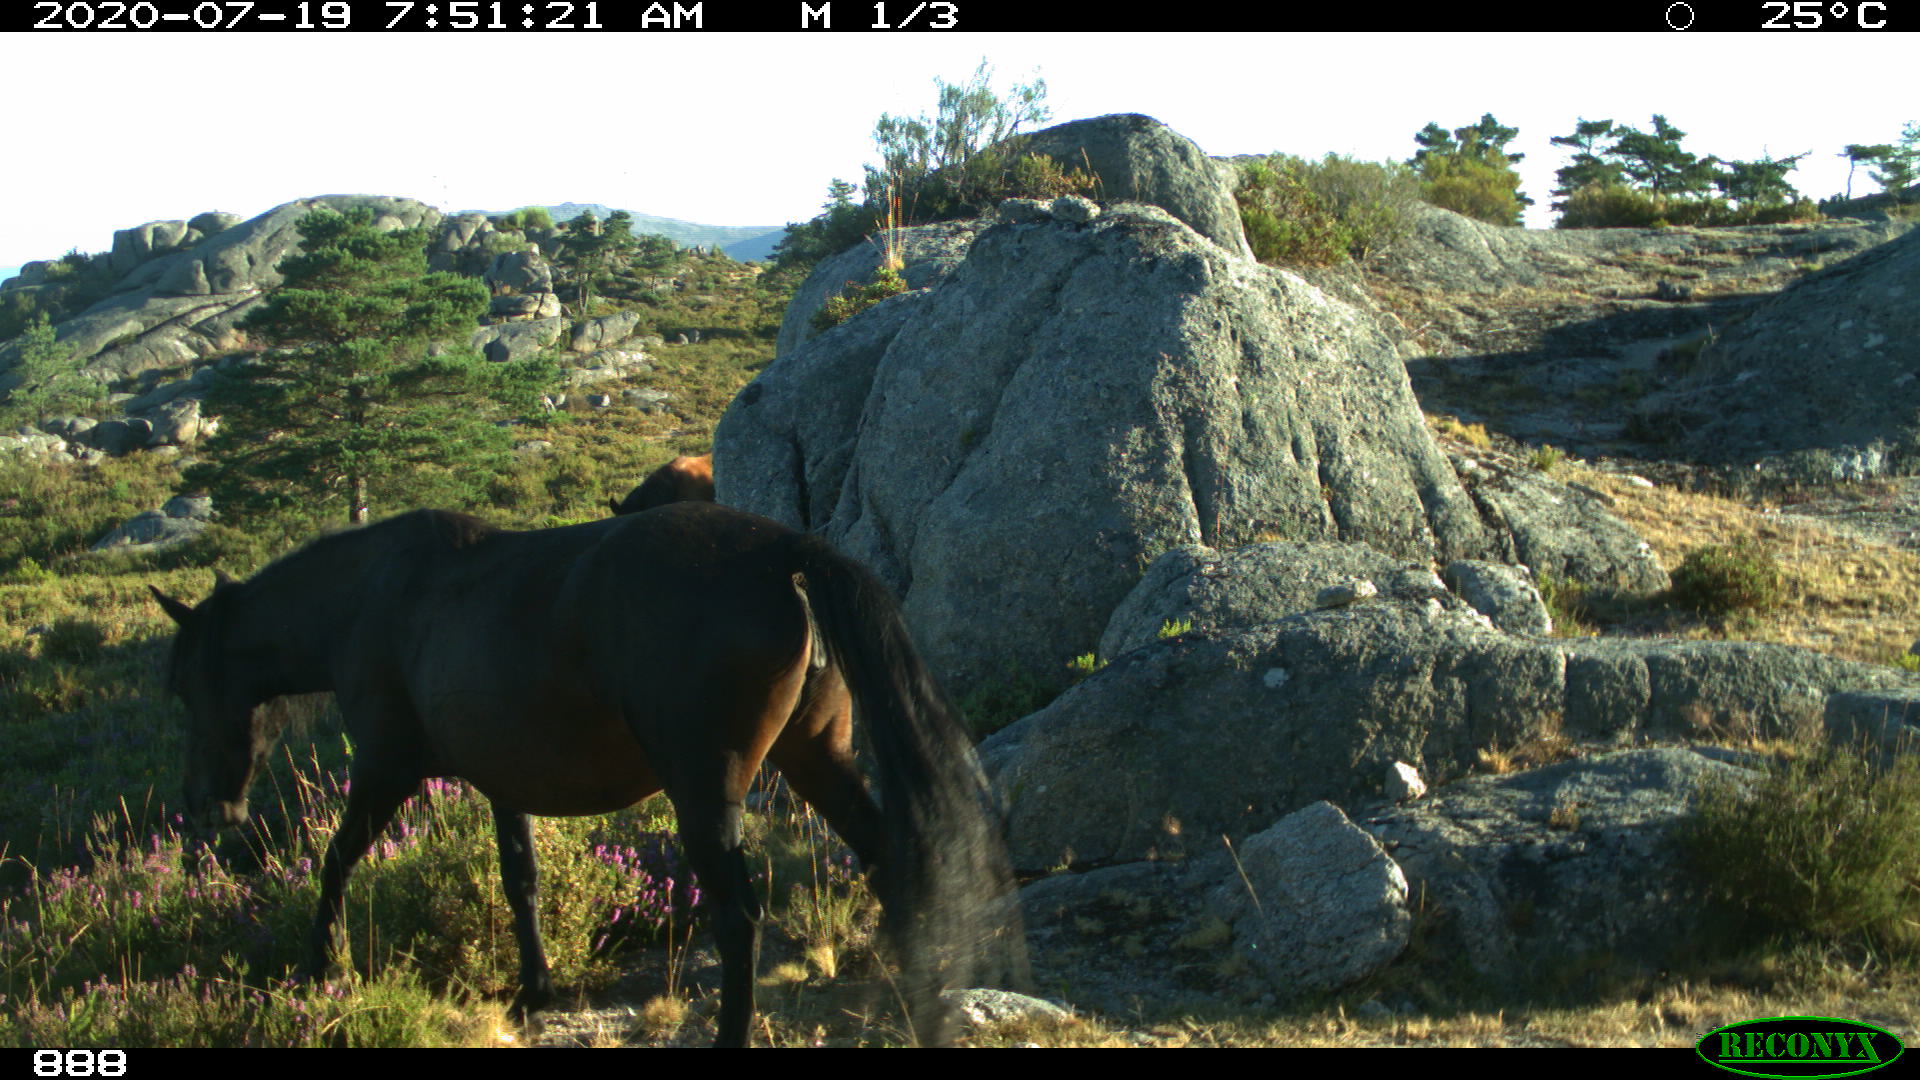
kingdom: Animalia
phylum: Chordata
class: Mammalia
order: Perissodactyla
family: Equidae
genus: Equus
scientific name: Equus caballus
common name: Horse
